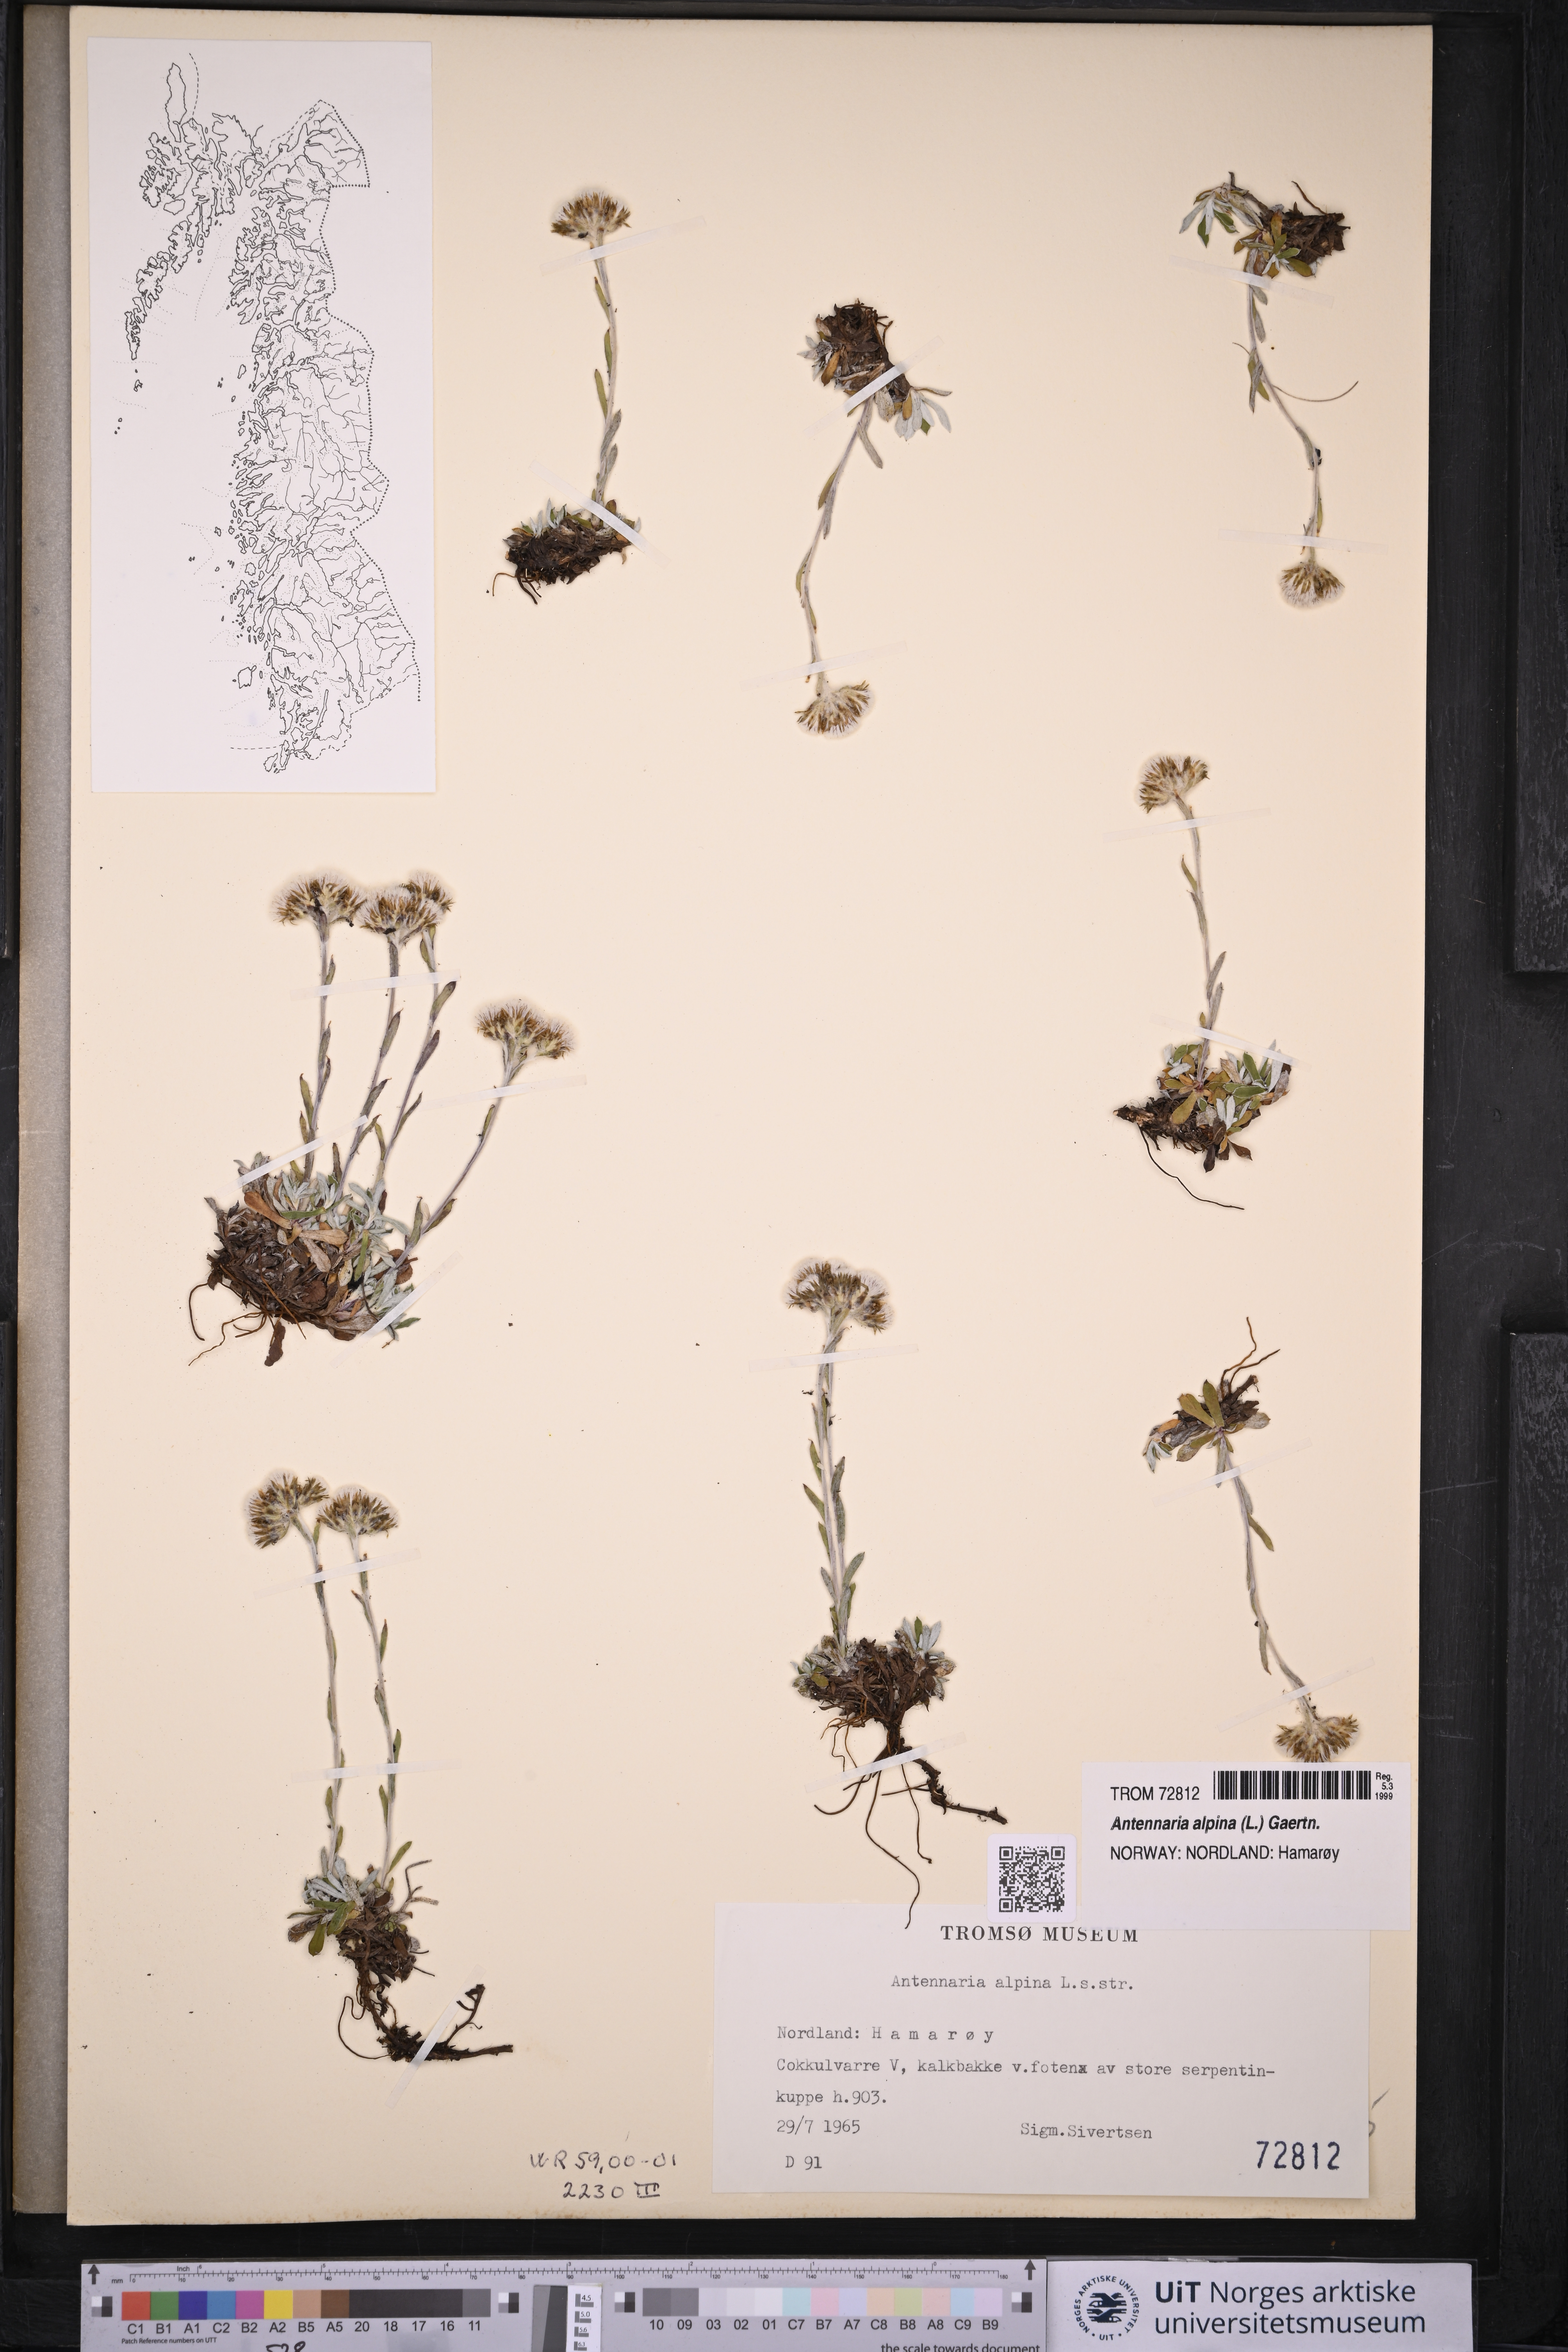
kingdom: Plantae
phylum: Tracheophyta
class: Magnoliopsida
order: Asterales
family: Asteraceae
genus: Antennaria
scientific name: Antennaria alpina
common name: Alpine pussytoes
